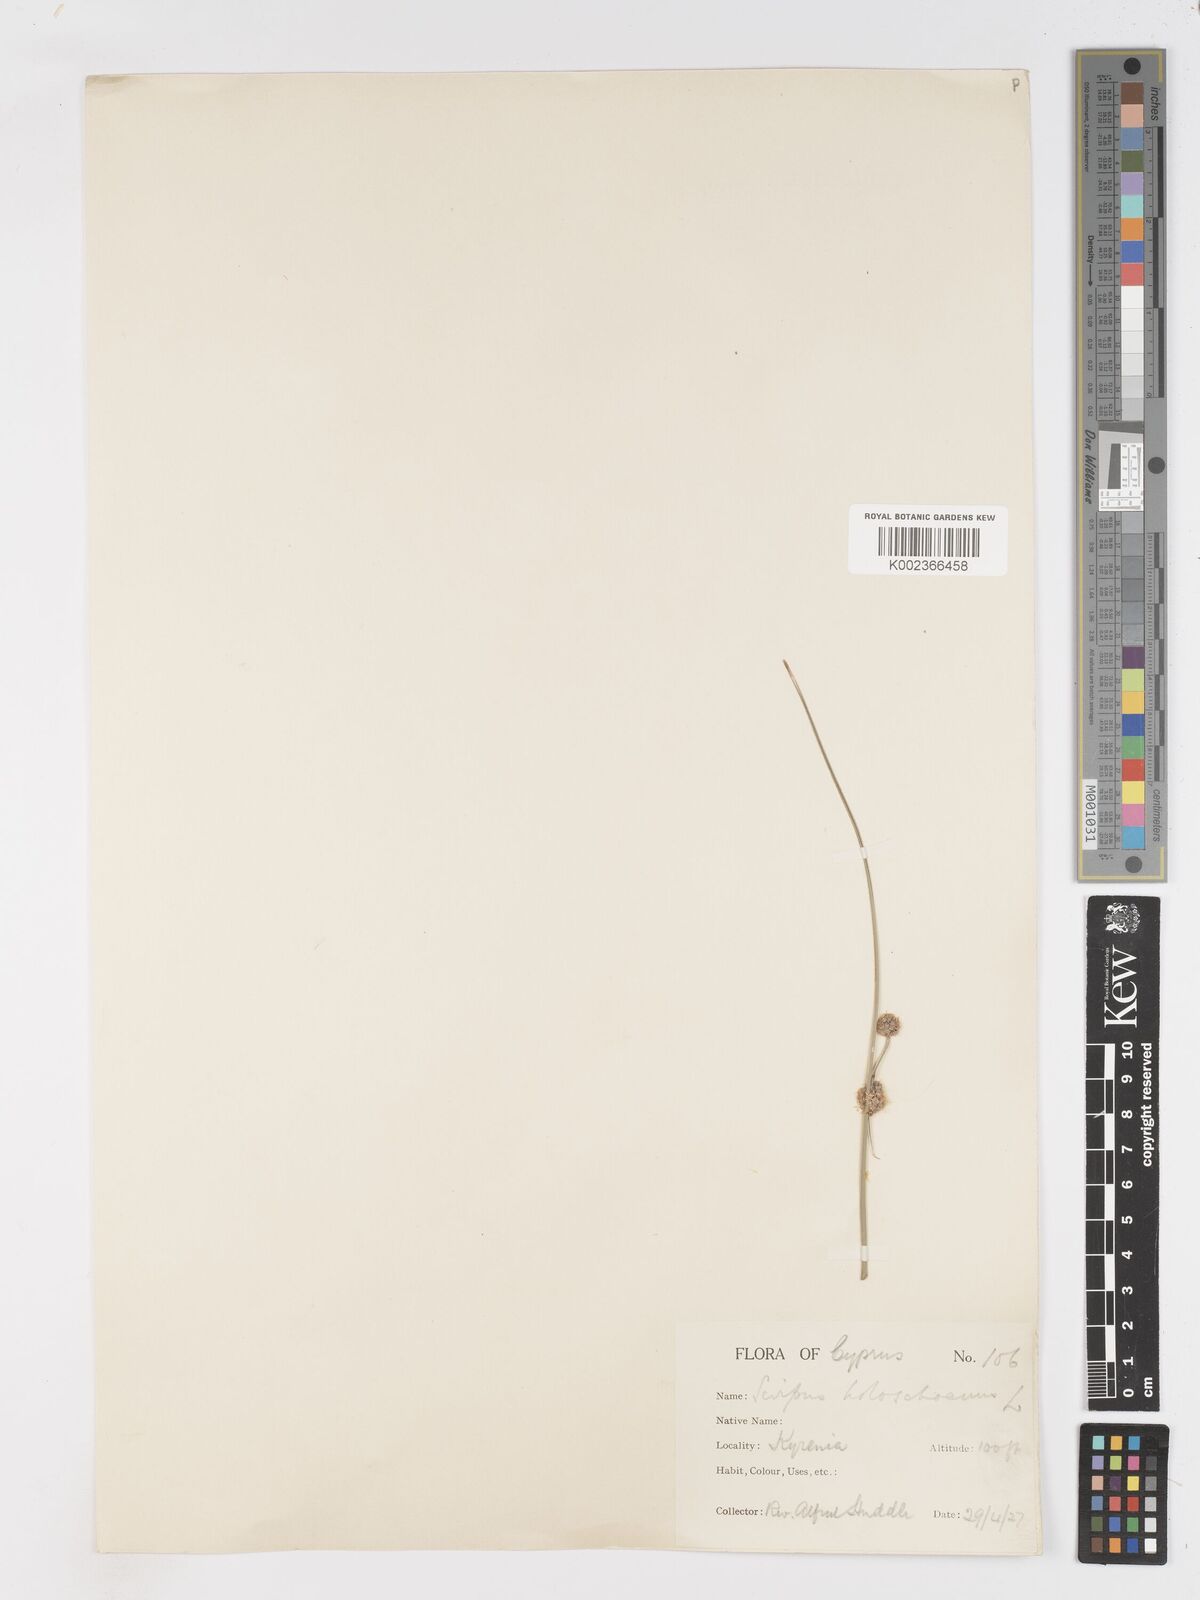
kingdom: Plantae
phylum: Tracheophyta
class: Liliopsida
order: Poales
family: Cyperaceae
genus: Scirpoides
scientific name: Scirpoides holoschoenus
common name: Round-headed club-rush
